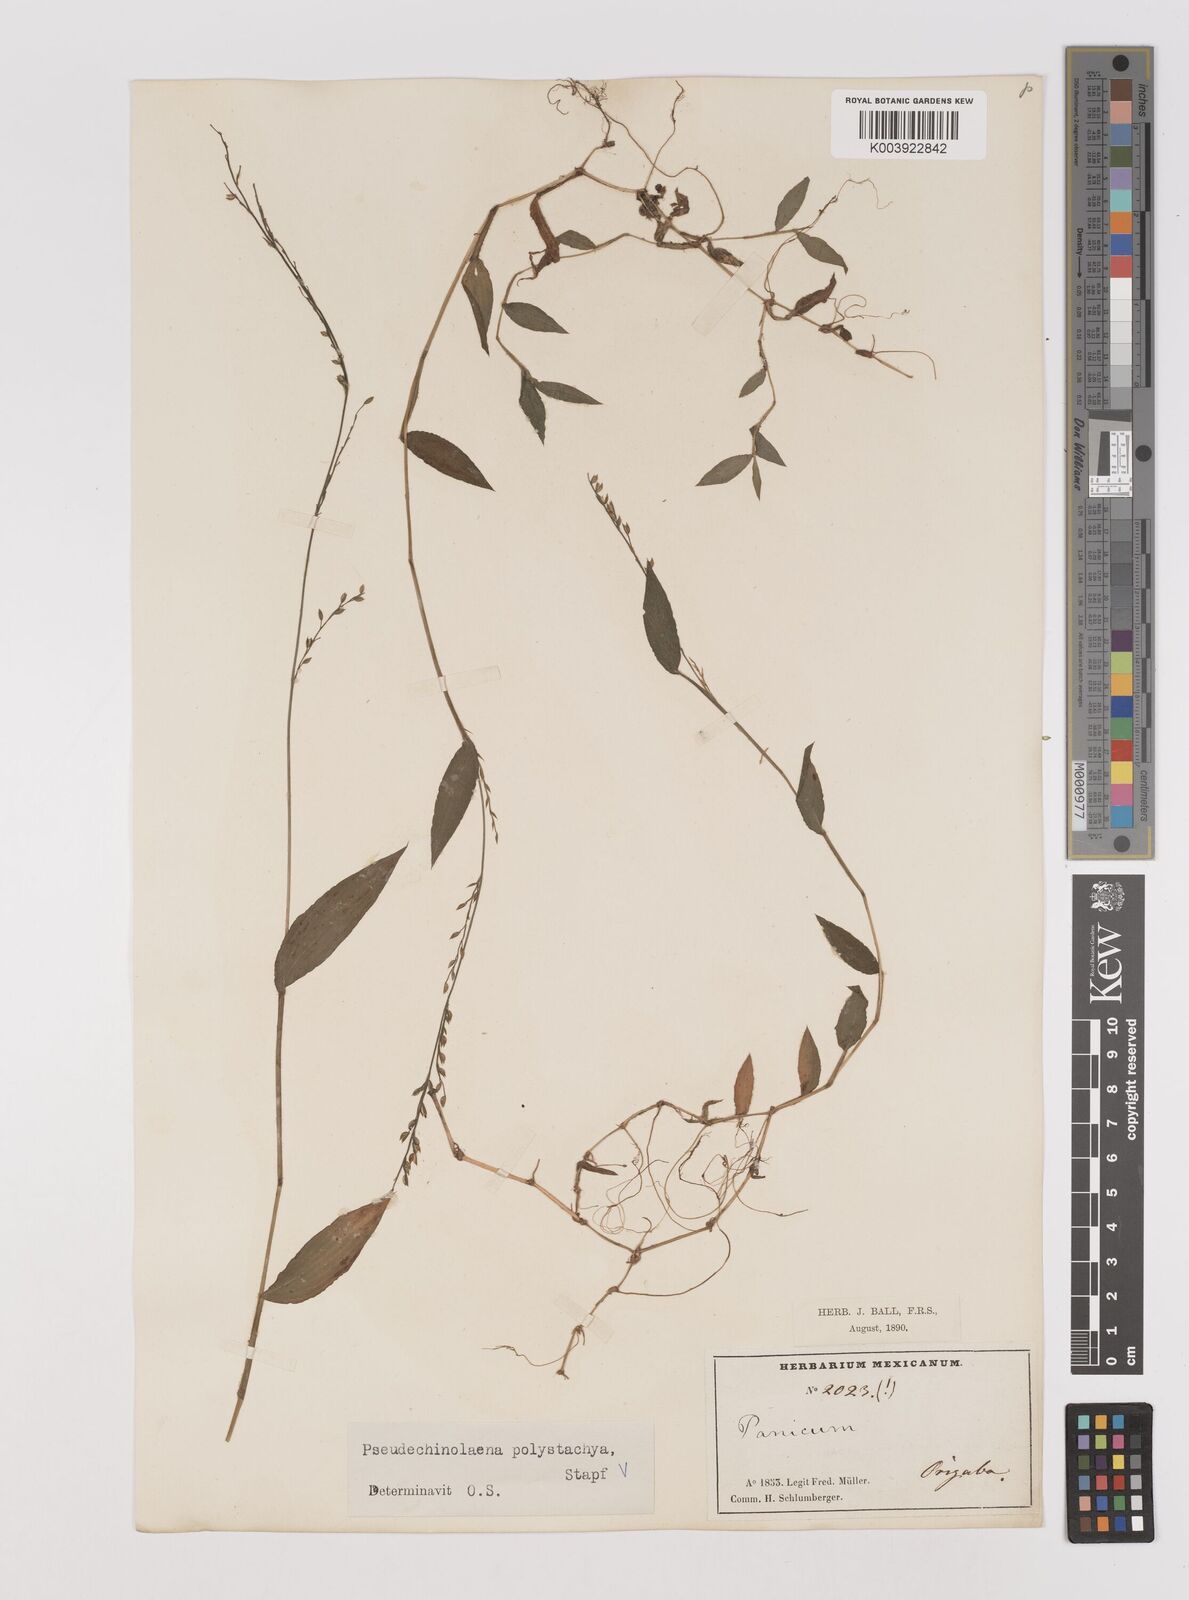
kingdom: Plantae
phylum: Tracheophyta
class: Liliopsida
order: Poales
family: Poaceae
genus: Pseudechinolaena
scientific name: Pseudechinolaena polystachya
